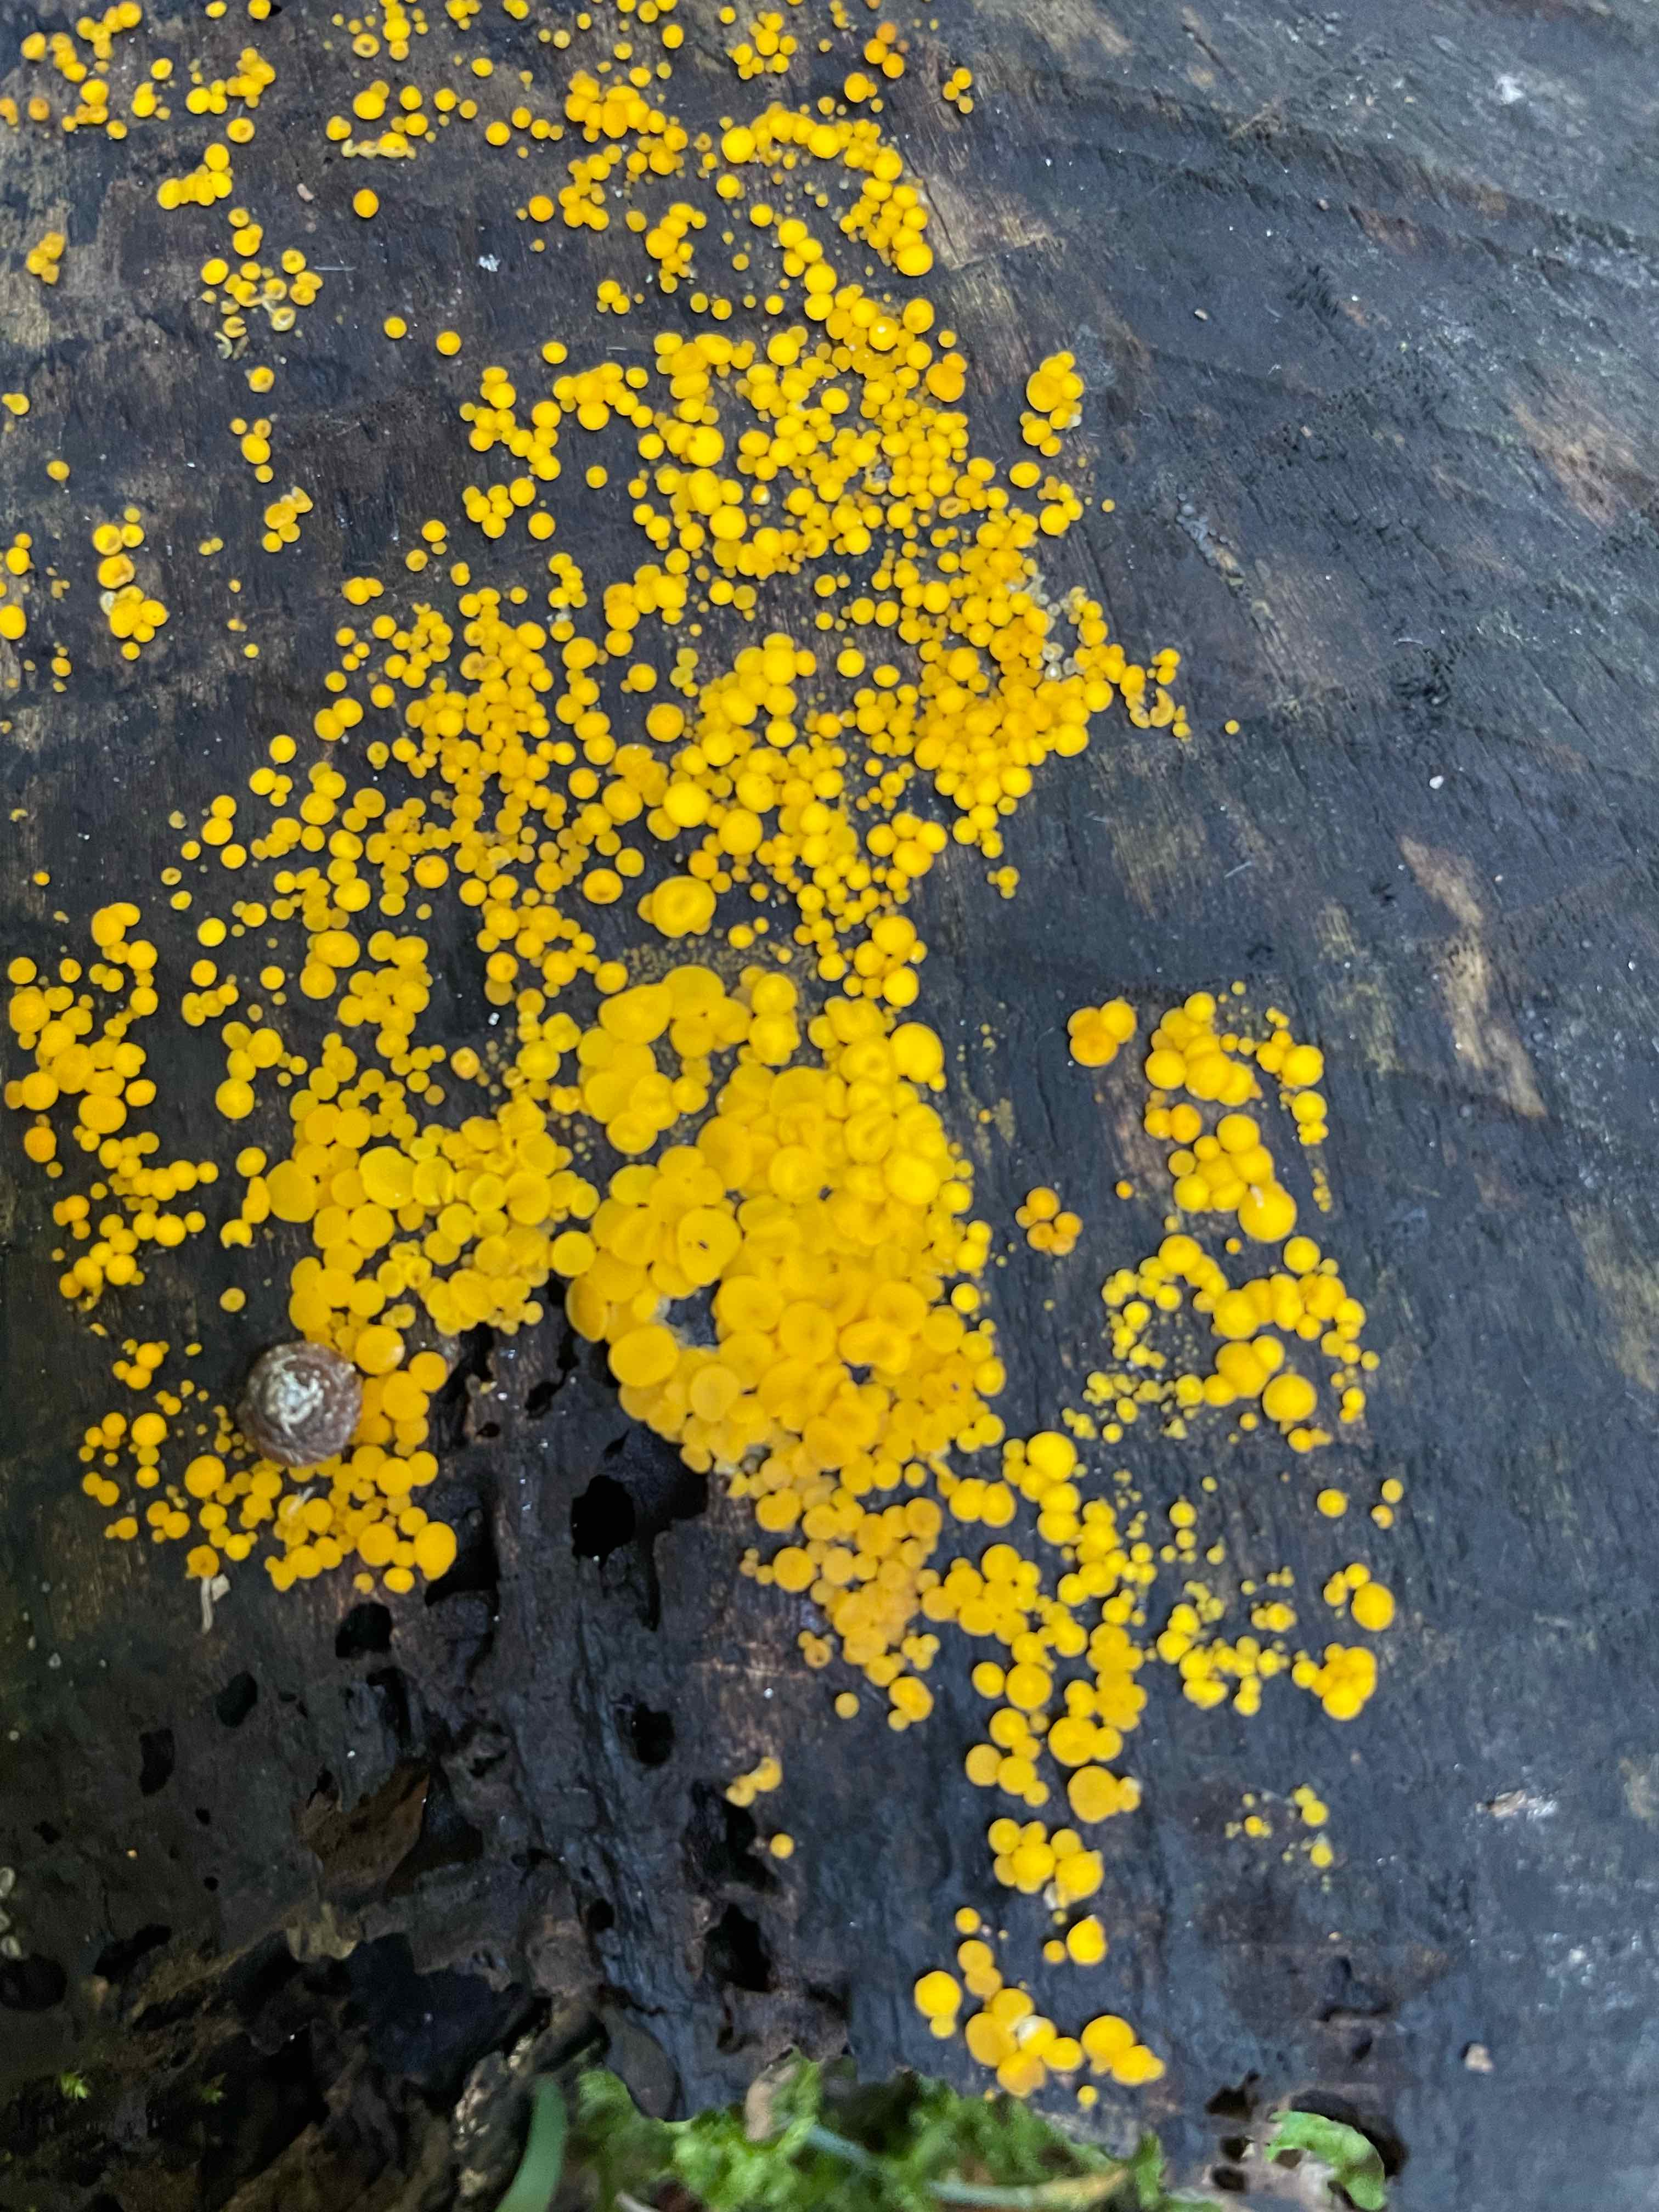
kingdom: Fungi
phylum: Ascomycota
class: Leotiomycetes
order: Helotiales
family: Pezizellaceae
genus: Calycina
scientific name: Calycina citrina
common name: almindelig gulskive
